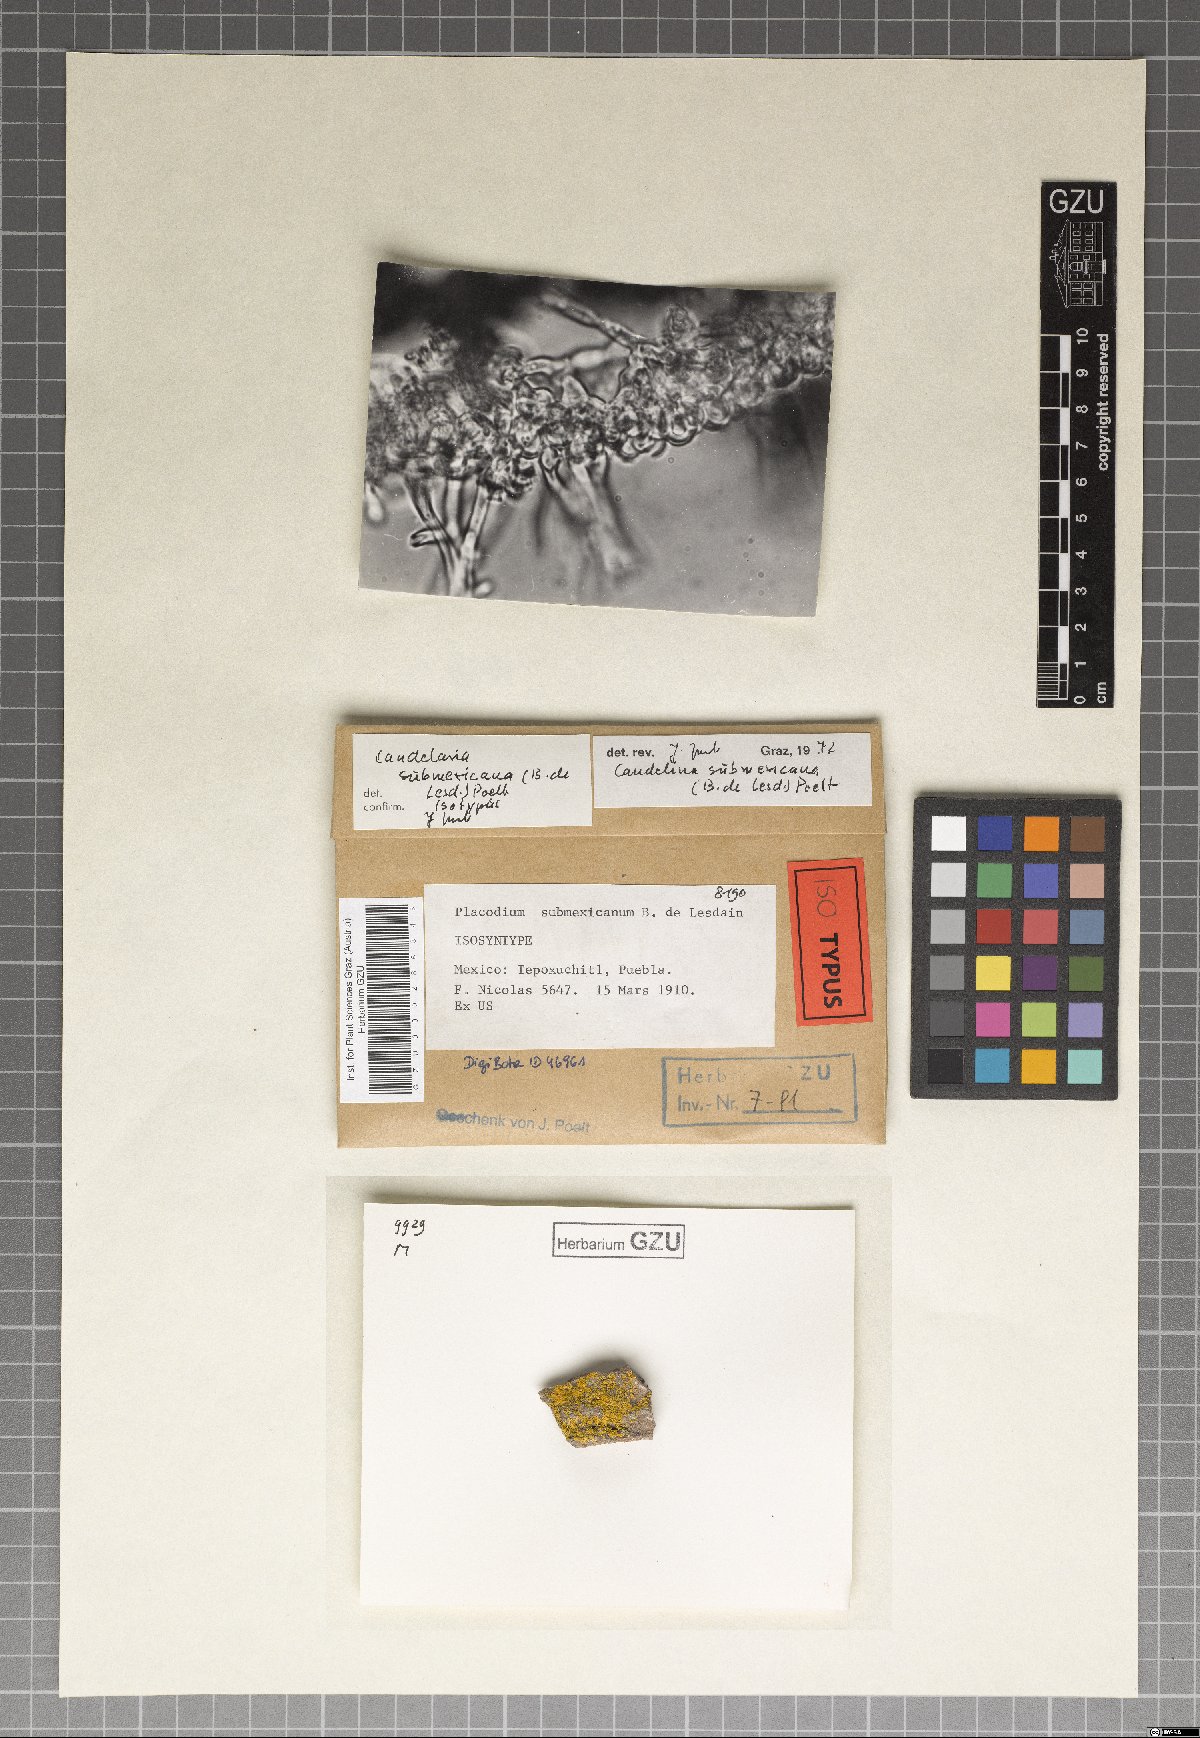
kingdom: Fungi
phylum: Ascomycota
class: Lecanoromycetes
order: Teloschistales
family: Teloschistaceae
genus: Placodium
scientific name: Placodium
